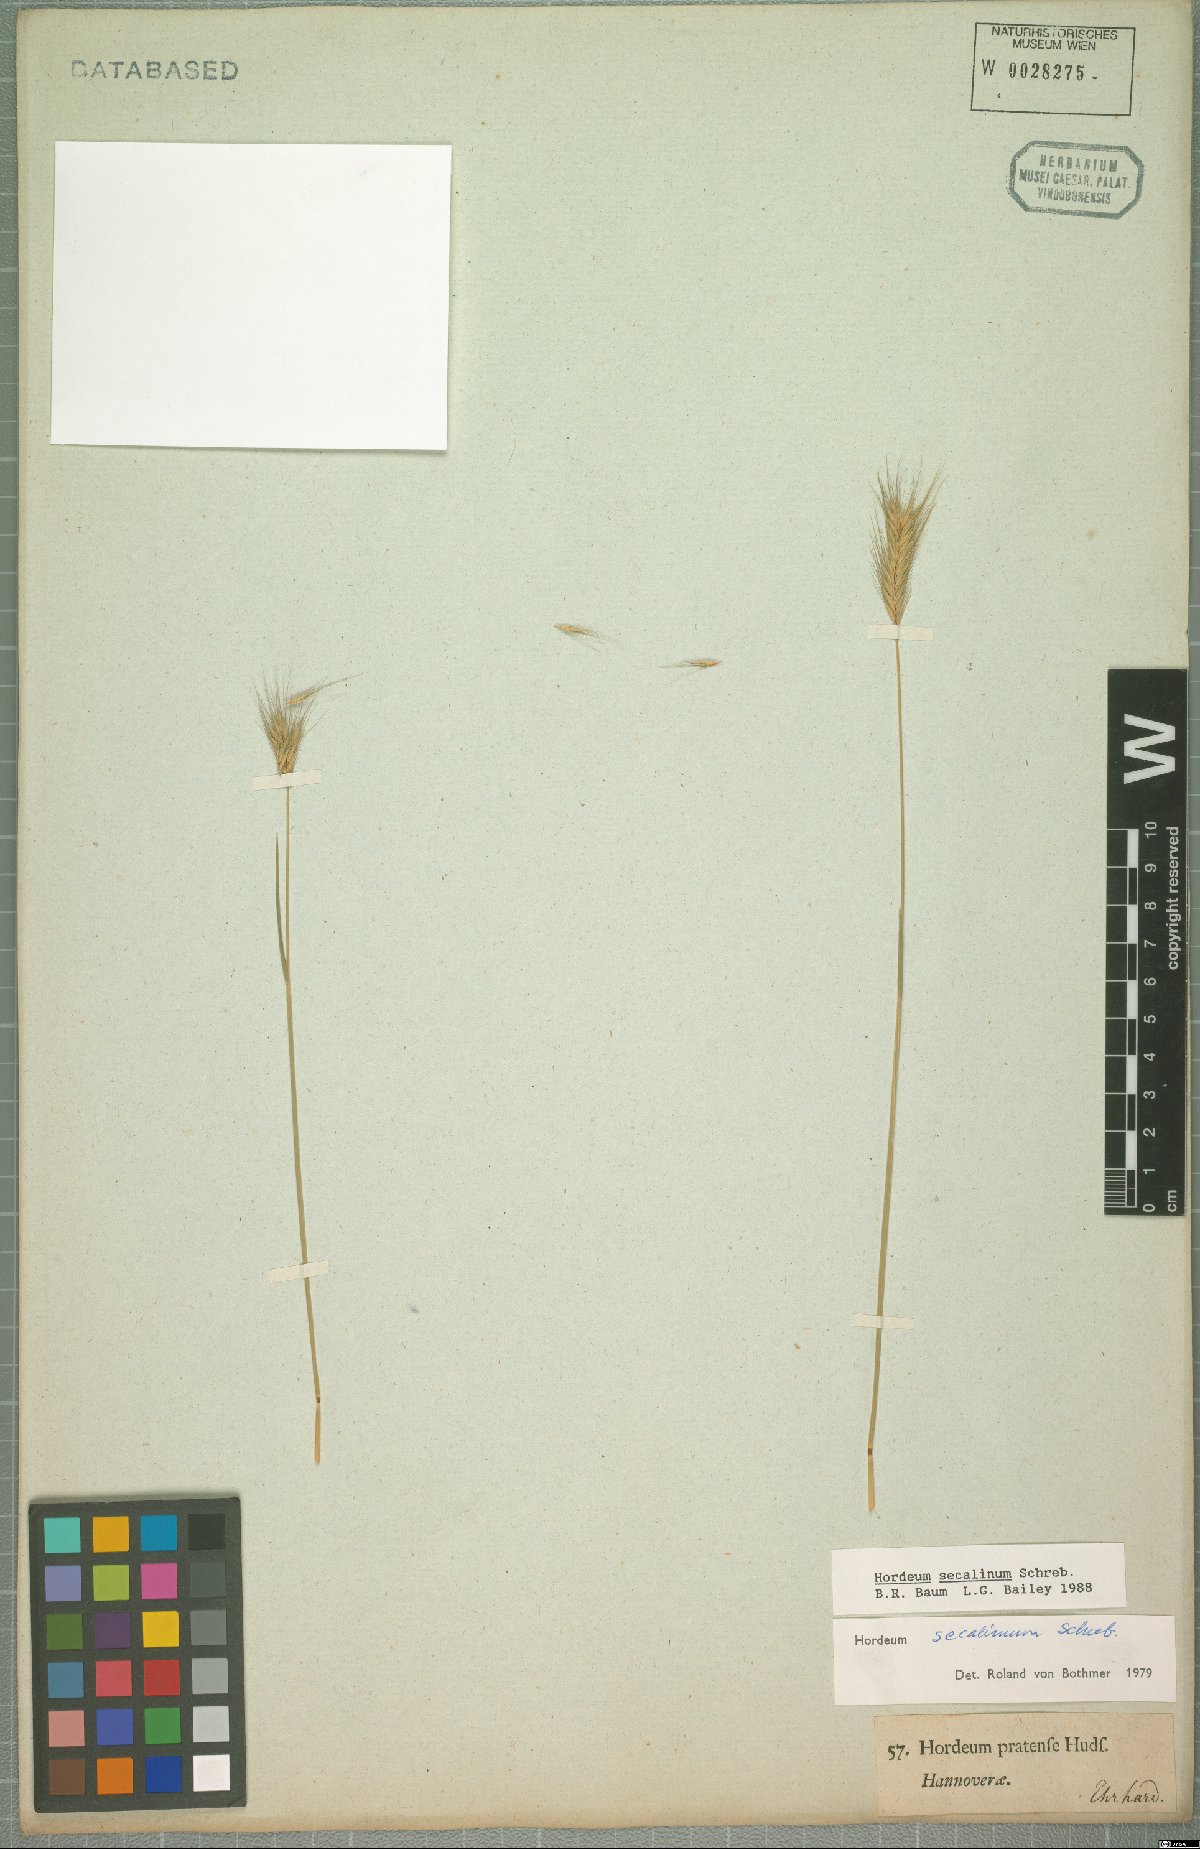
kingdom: Plantae
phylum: Tracheophyta
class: Liliopsida
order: Poales
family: Poaceae
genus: Hordeum
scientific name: Hordeum secalinum
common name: Meadow barley
